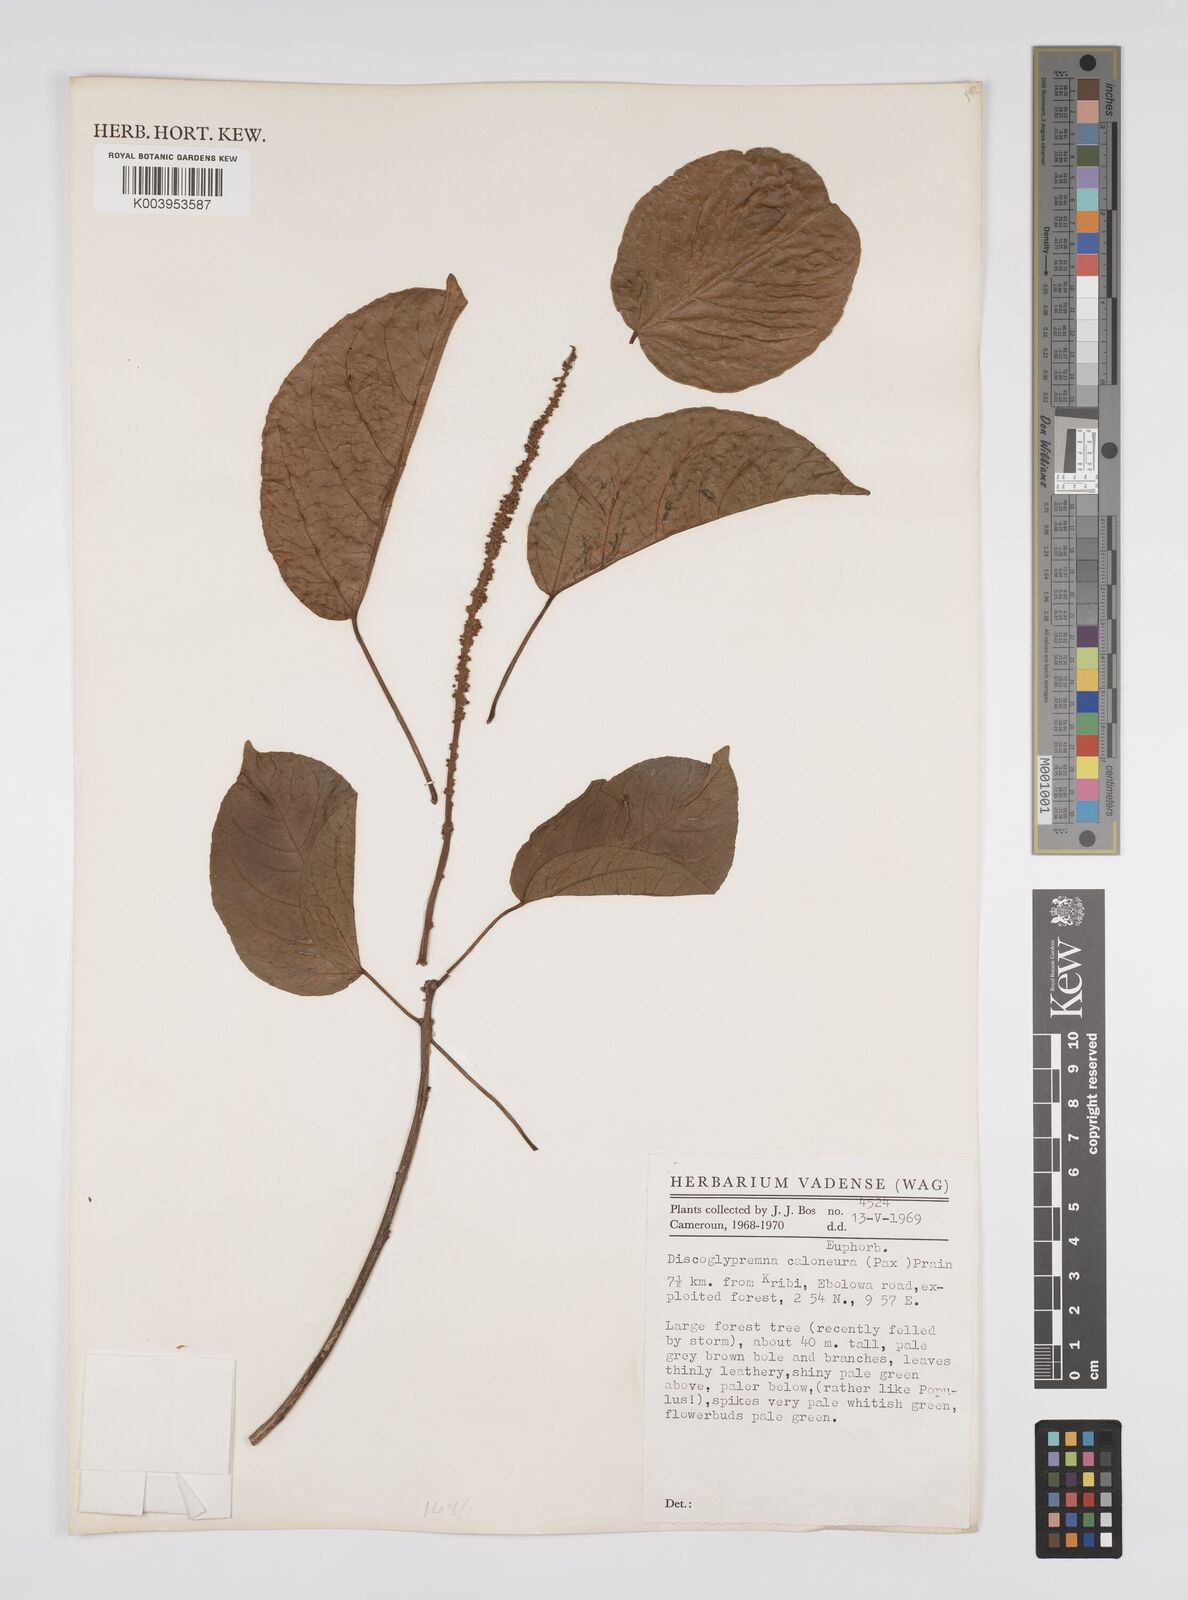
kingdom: Plantae
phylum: Tracheophyta
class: Magnoliopsida
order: Malpighiales
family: Euphorbiaceae
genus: Discoglypremna
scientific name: Discoglypremna caloneura
